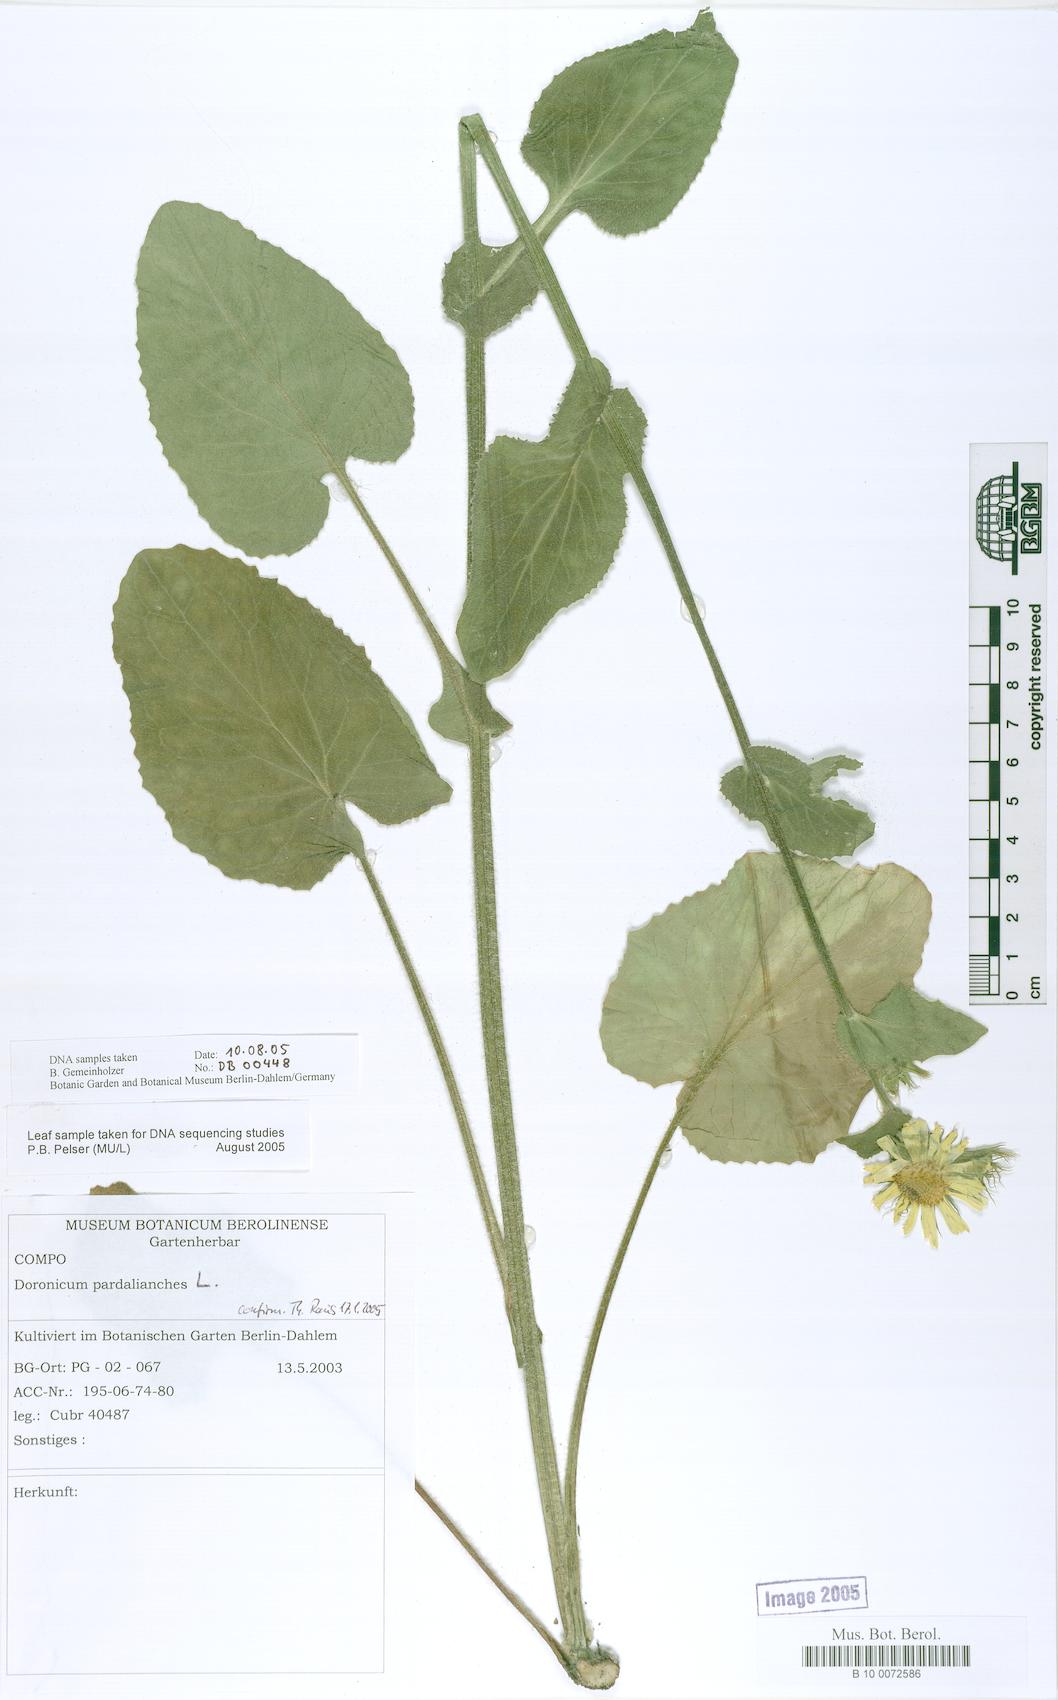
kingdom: Plantae
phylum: Tracheophyta
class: Magnoliopsida
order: Asterales
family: Asteraceae
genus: Doronicum
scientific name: Doronicum pardalianches
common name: Leopard's-bane
